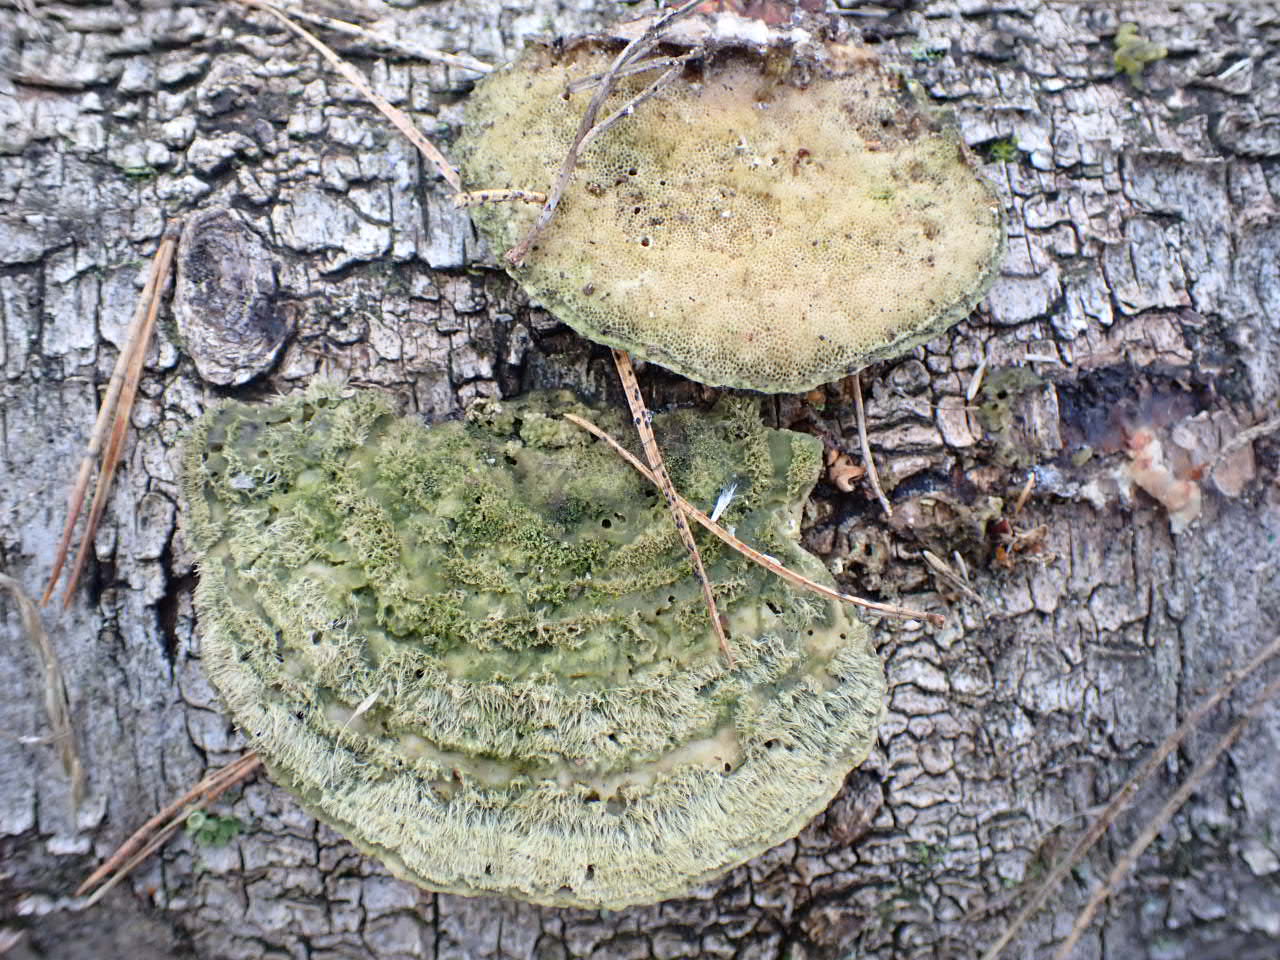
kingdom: Fungi
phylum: Basidiomycota
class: Agaricomycetes
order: Polyporales
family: Polyporaceae
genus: Trametes
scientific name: Trametes hirsuta
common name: håret læderporesvamp
